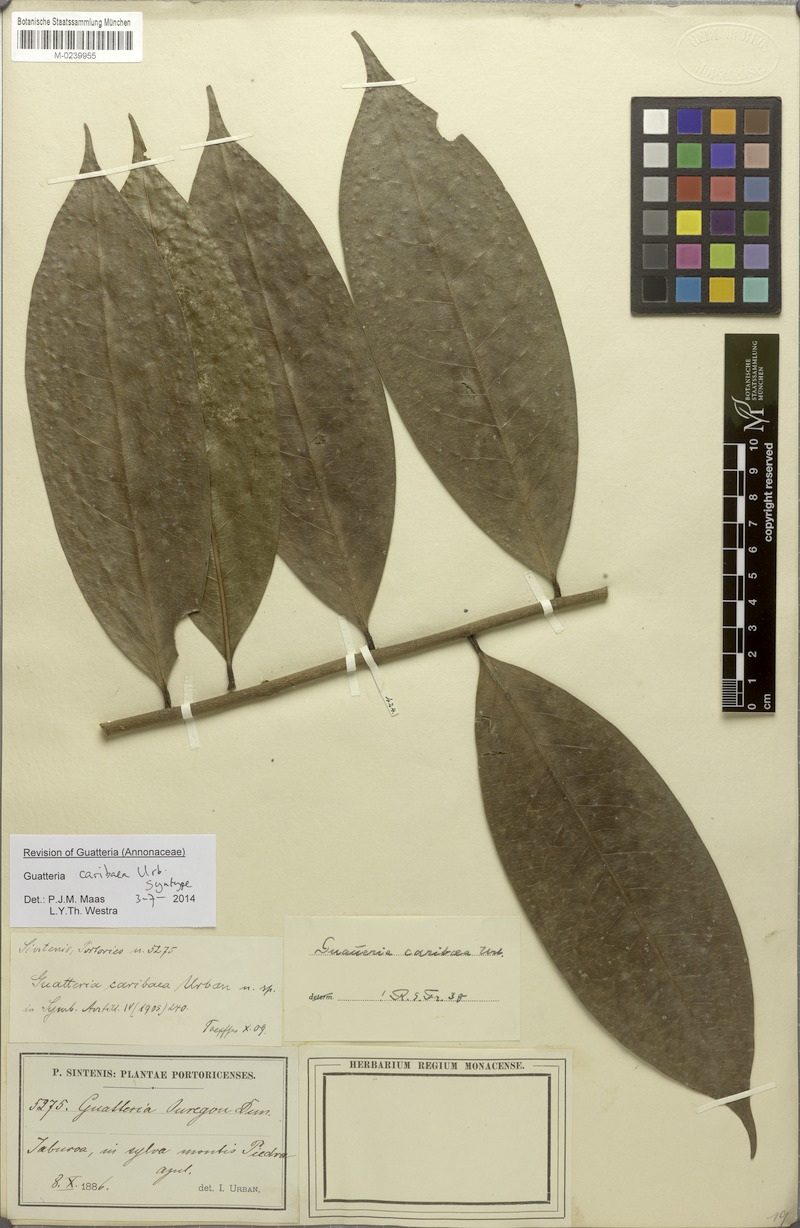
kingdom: Plantae
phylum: Tracheophyta
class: Magnoliopsida
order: Magnoliales
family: Annonaceae
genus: Guatteria
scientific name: Guatteria caribaea
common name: Wild soursop
